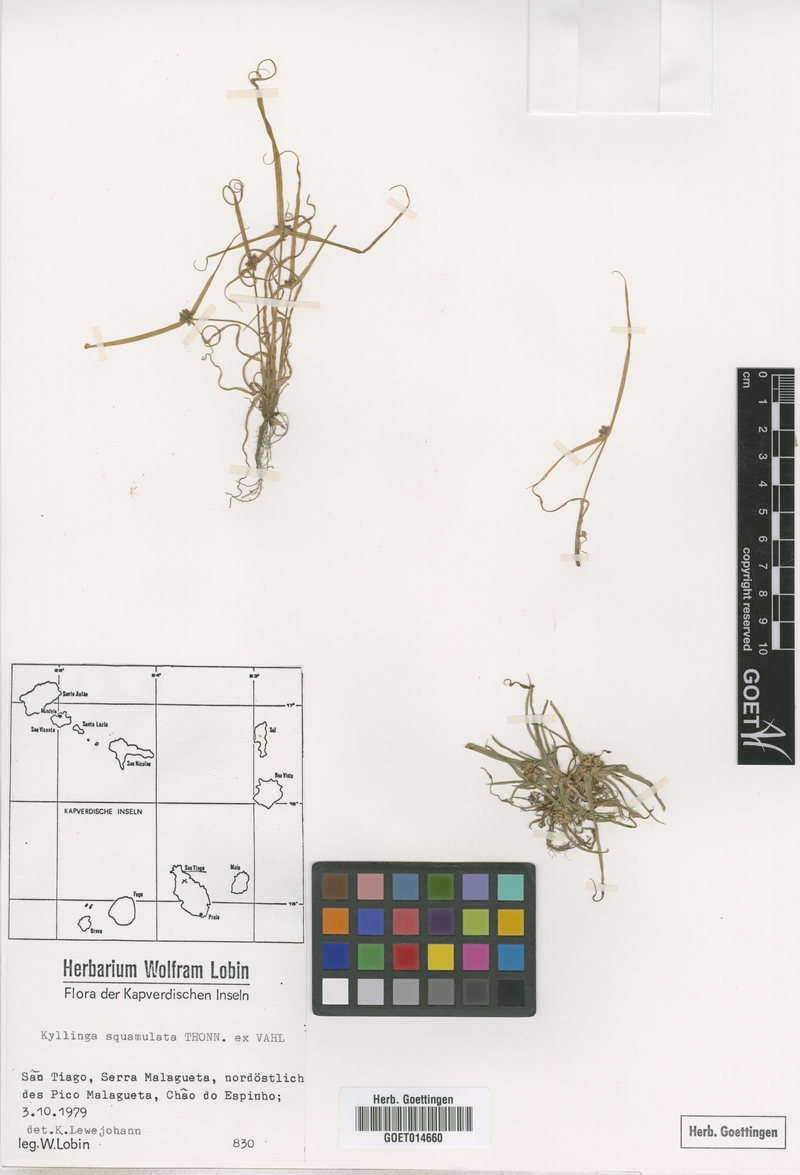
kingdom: Plantae
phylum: Tracheophyta
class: Liliopsida
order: Poales
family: Cyperaceae
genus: Cyperus
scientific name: Cyperus metzii
